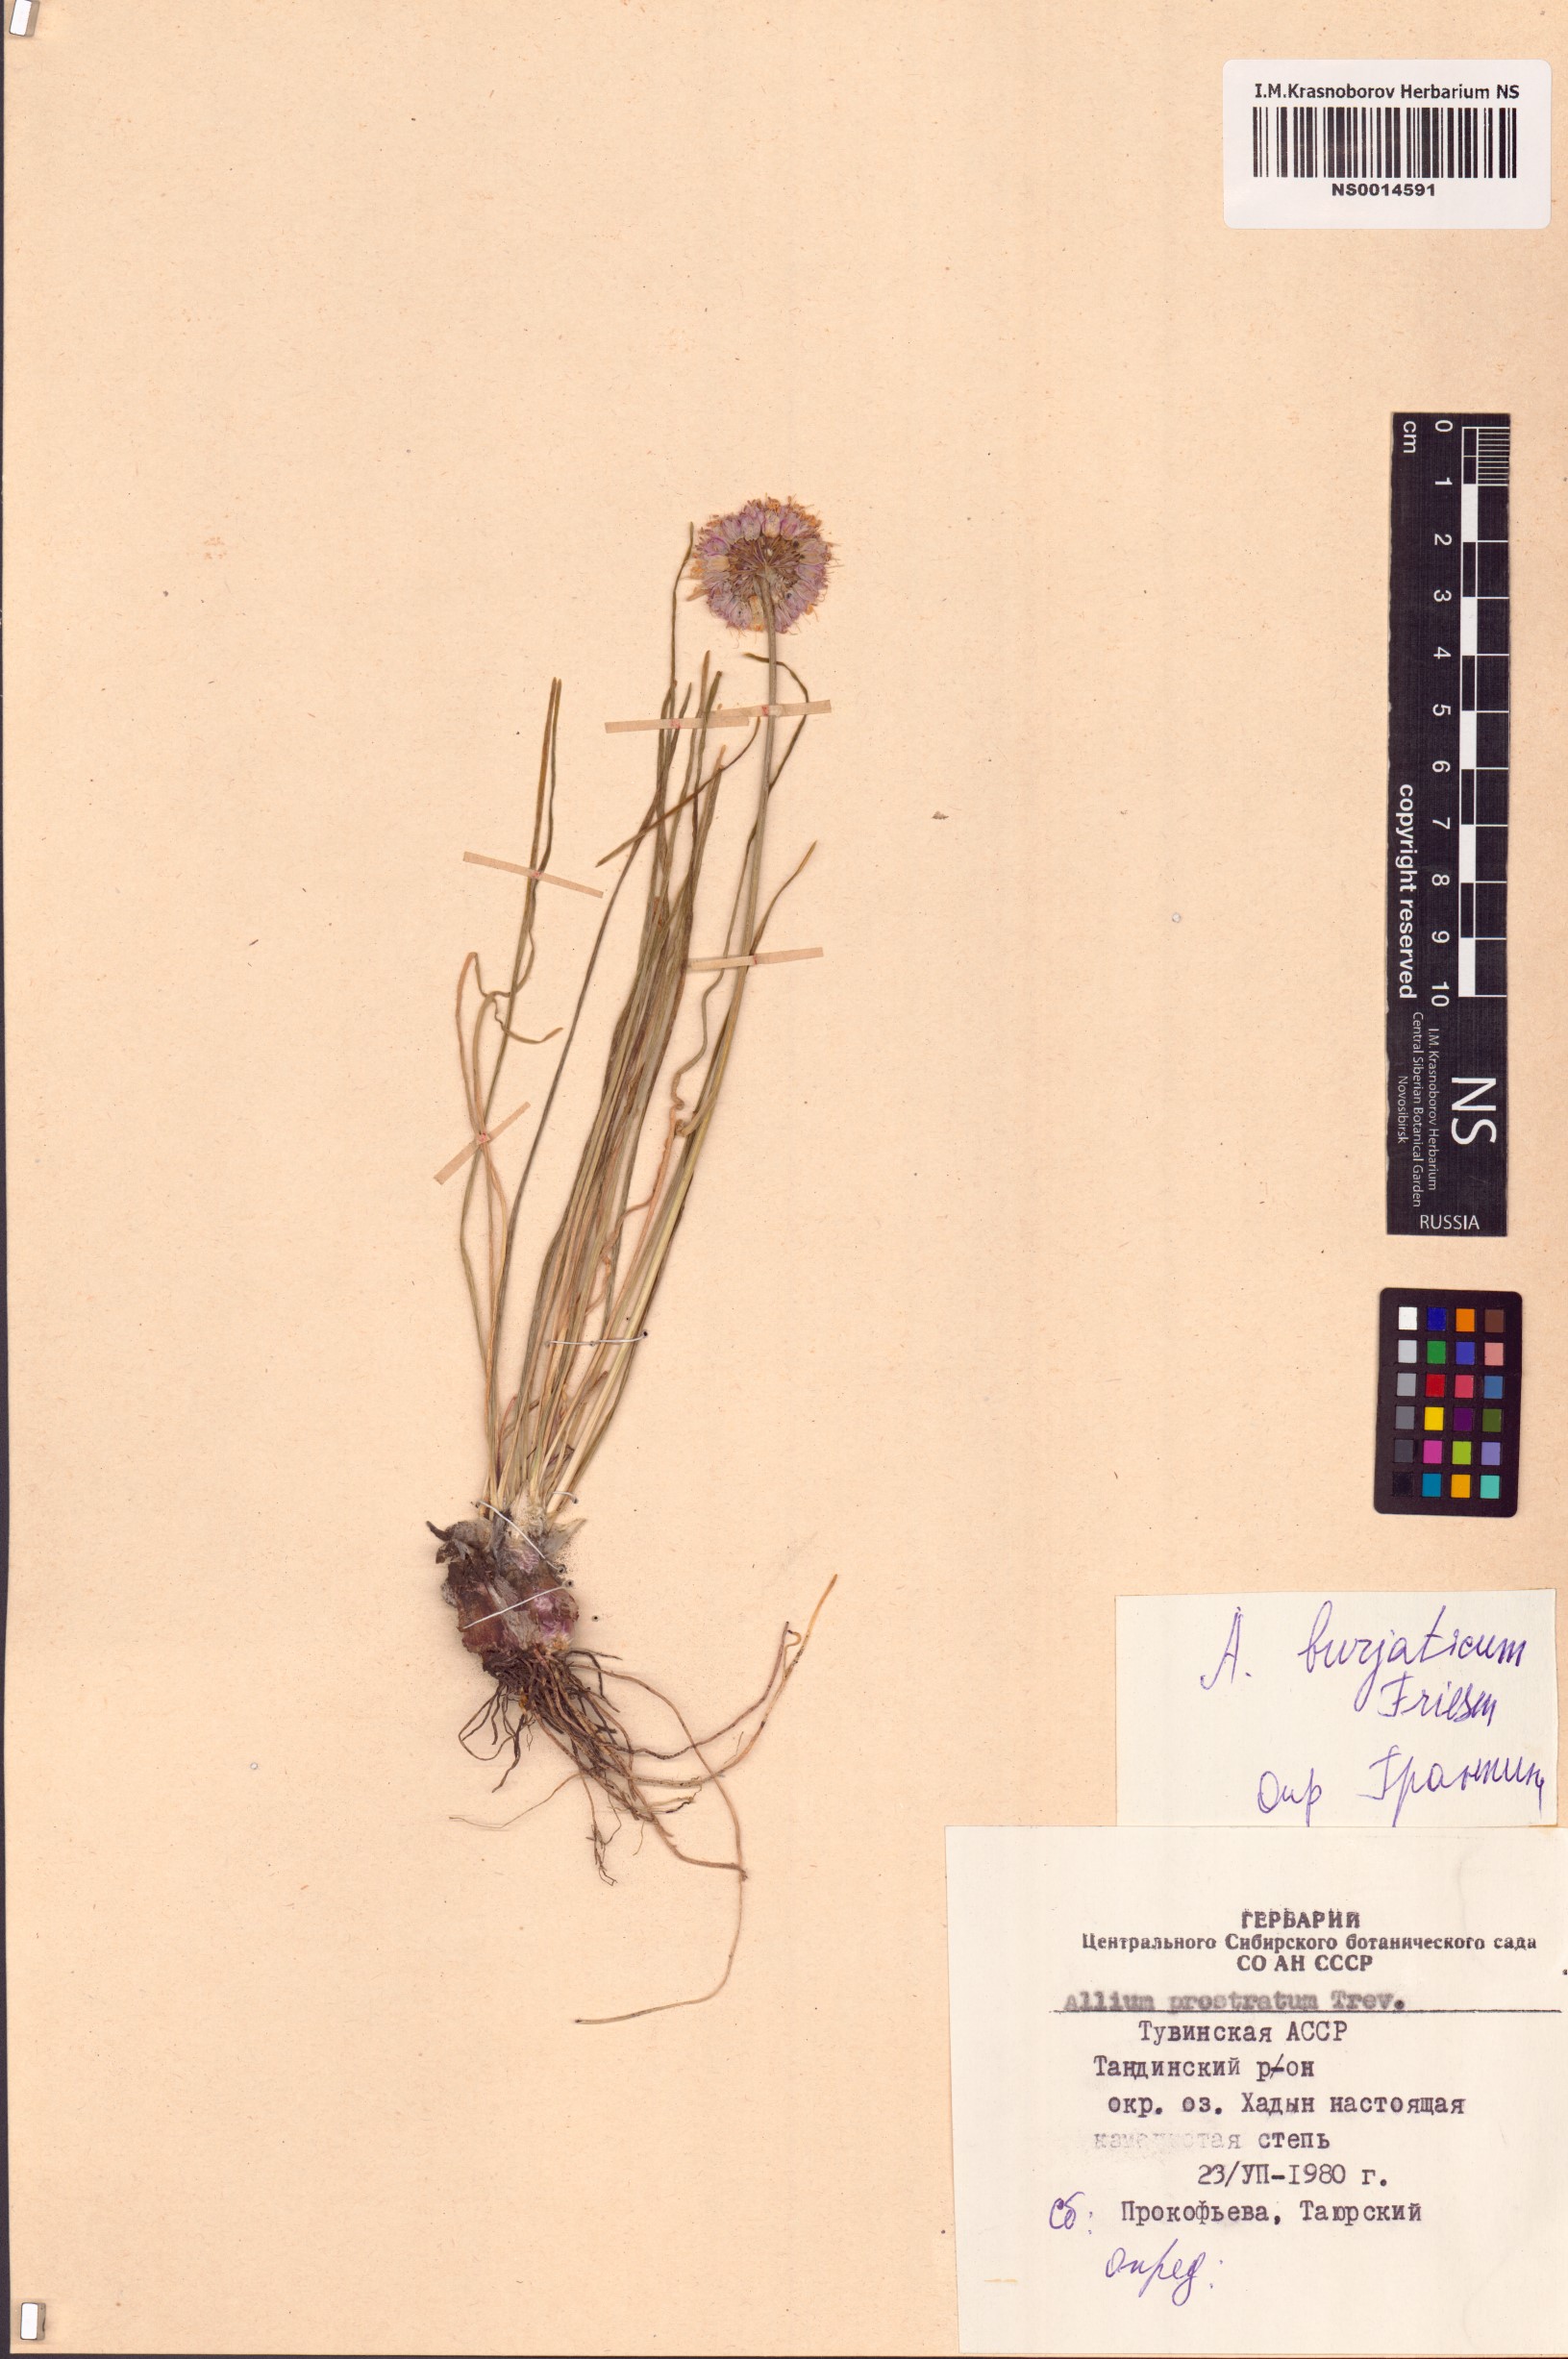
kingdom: Plantae
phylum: Tracheophyta
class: Liliopsida
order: Asparagales
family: Amaryllidaceae
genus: Allium
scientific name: Allium burjaticum
